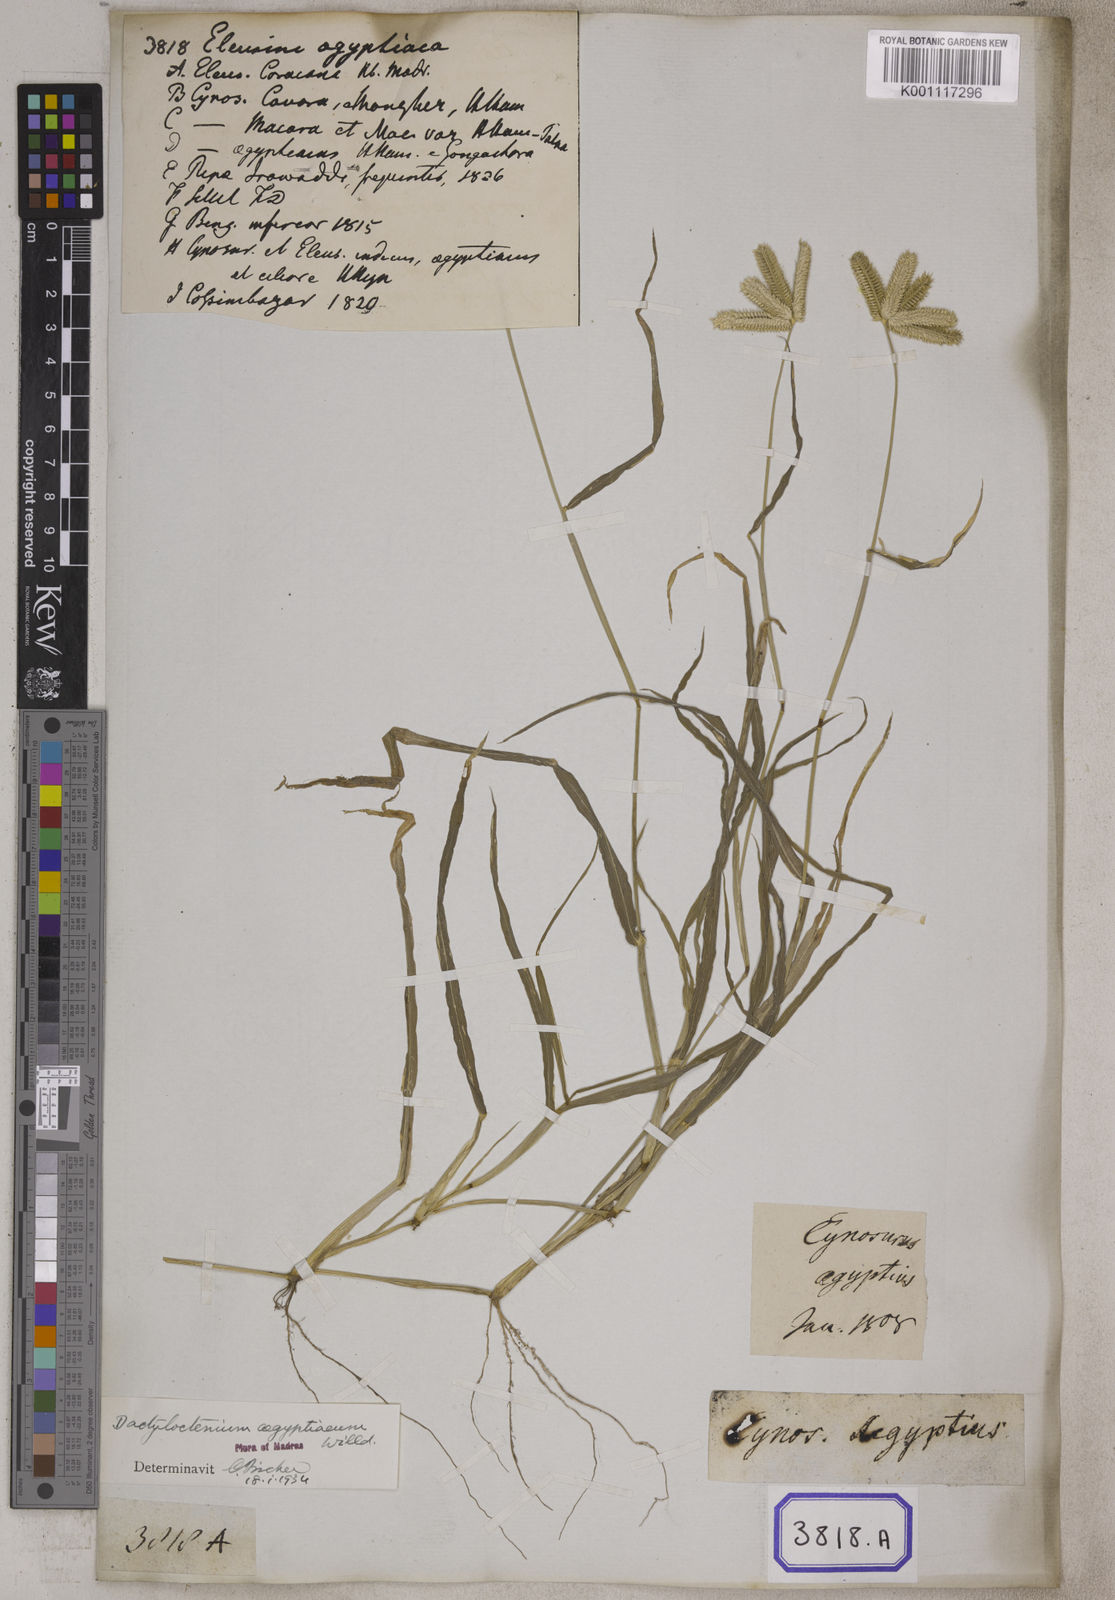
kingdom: Plantae
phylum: Tracheophyta
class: Liliopsida
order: Poales
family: Poaceae
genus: Eleusine
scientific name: Eleusine
